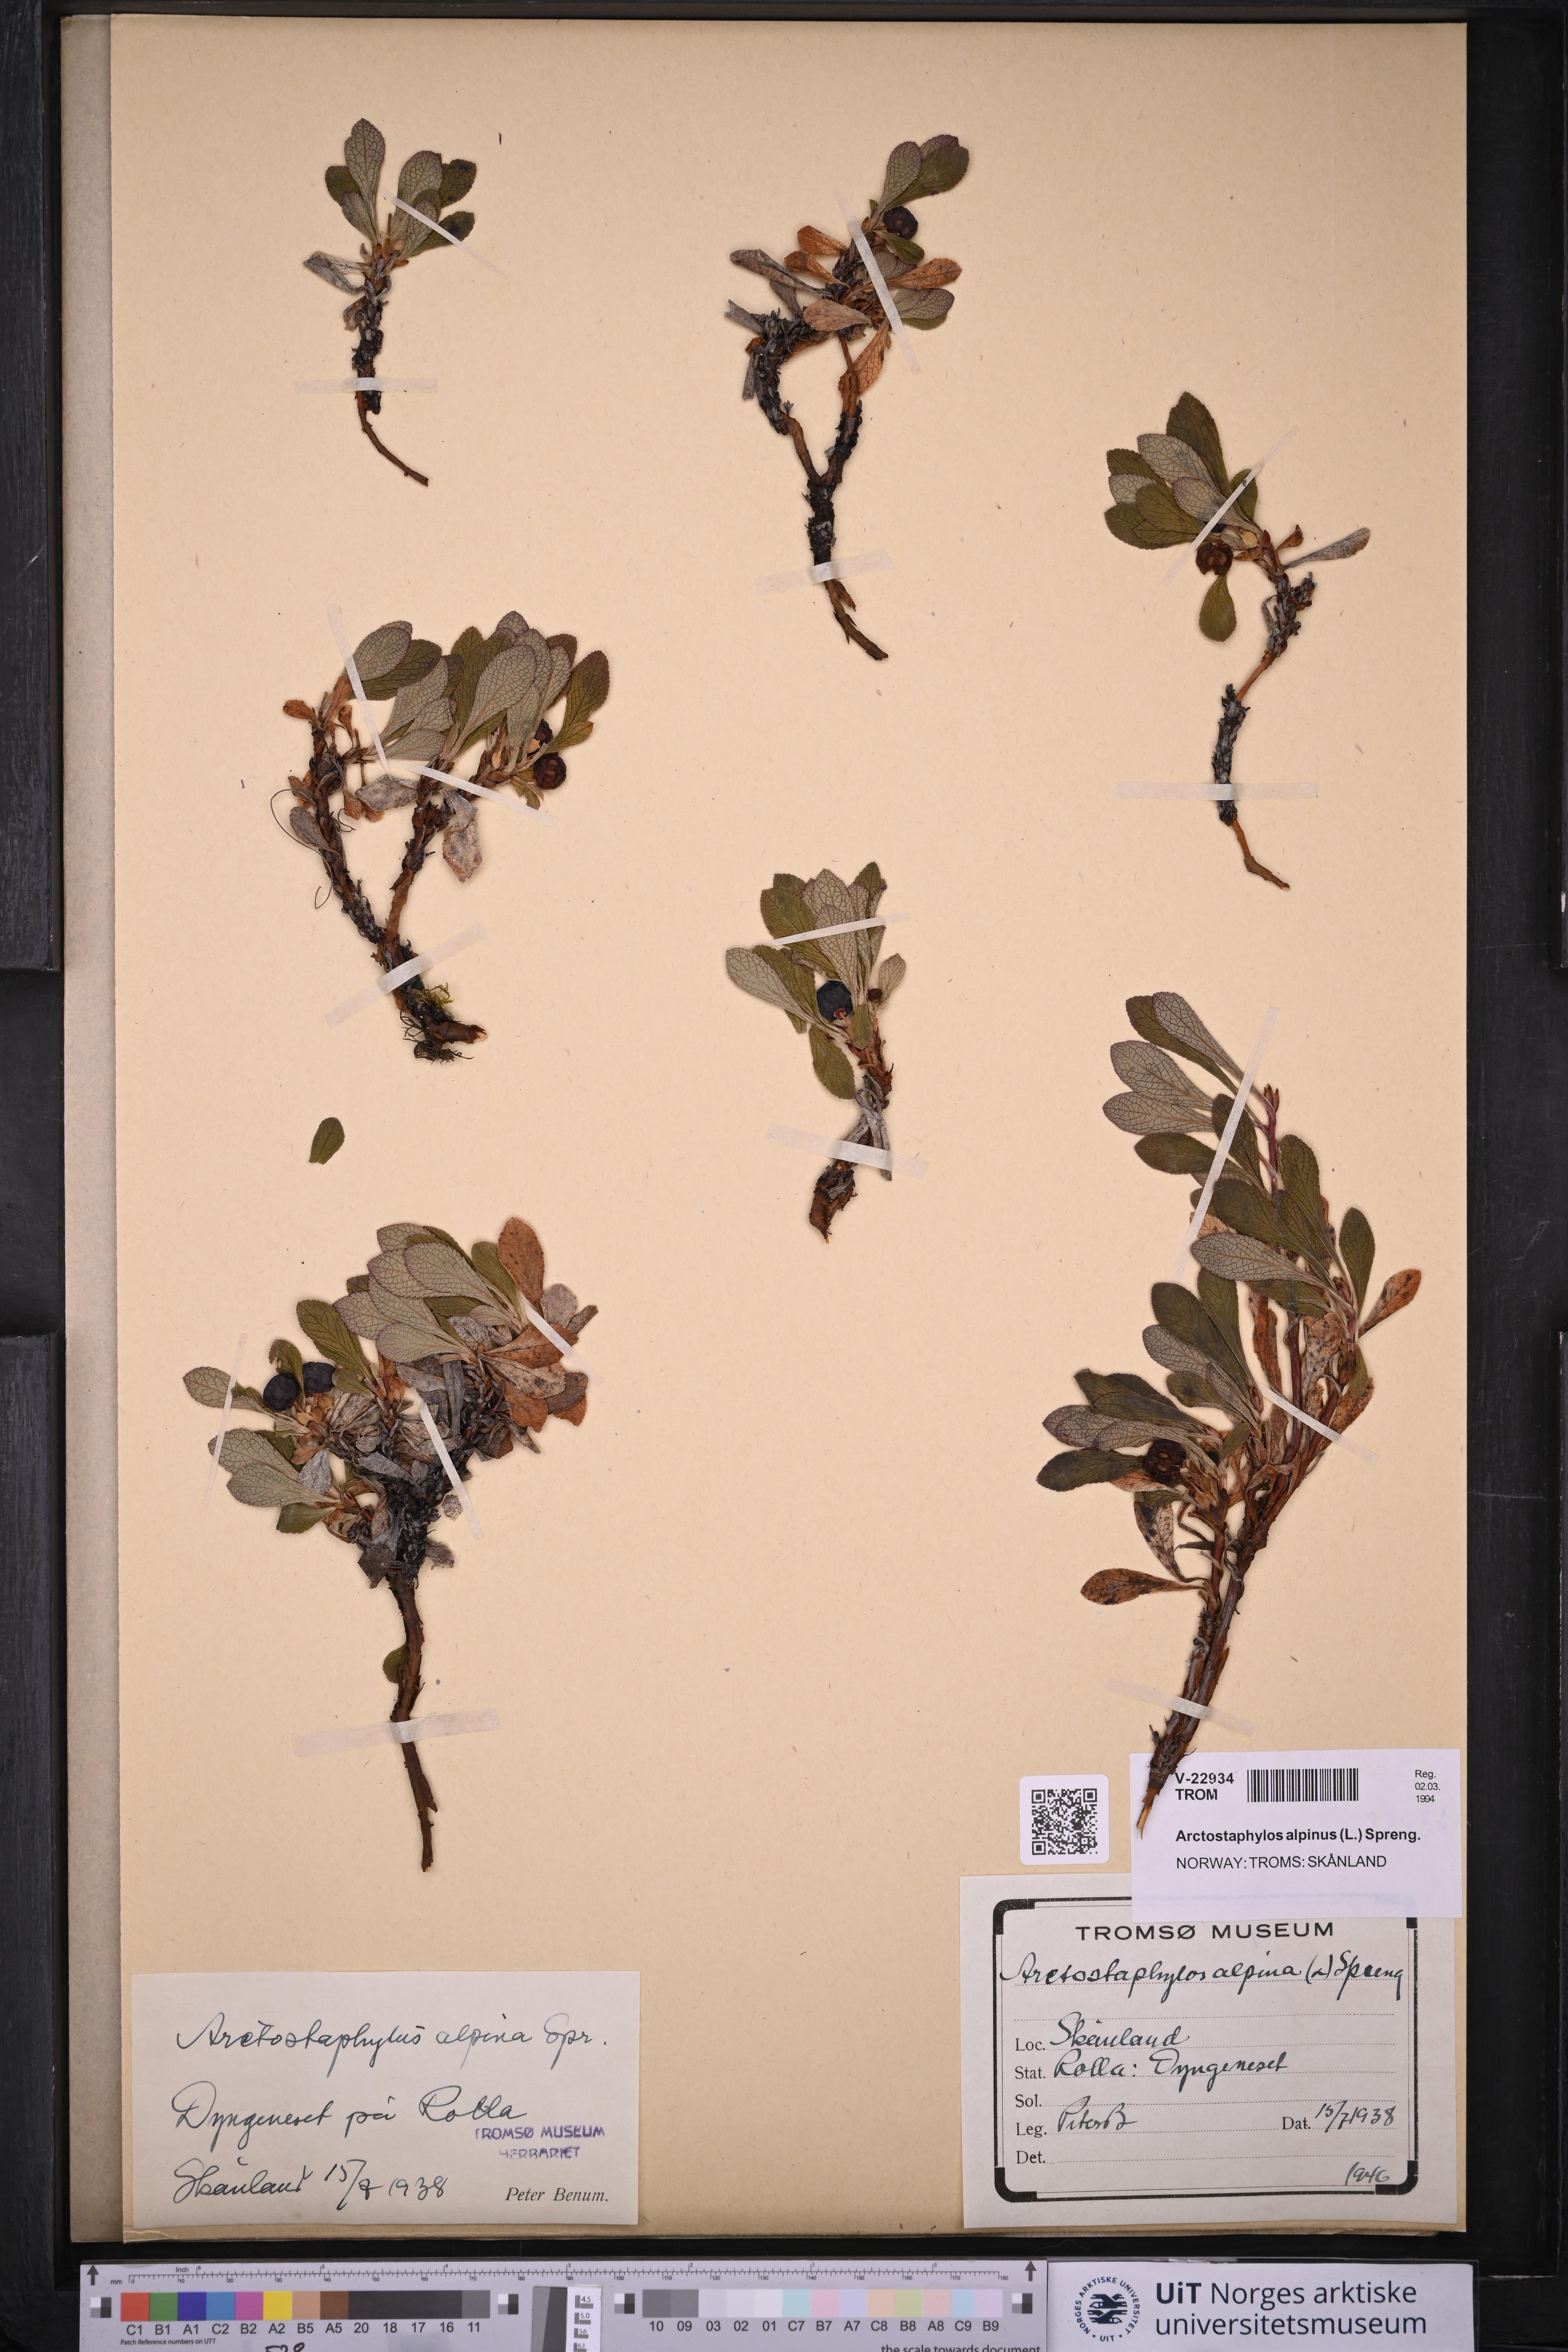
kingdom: Plantae
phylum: Tracheophyta
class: Magnoliopsida
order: Ericales
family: Ericaceae
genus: Arctostaphylos
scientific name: Arctostaphylos alpinus
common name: Alpine bearberry
